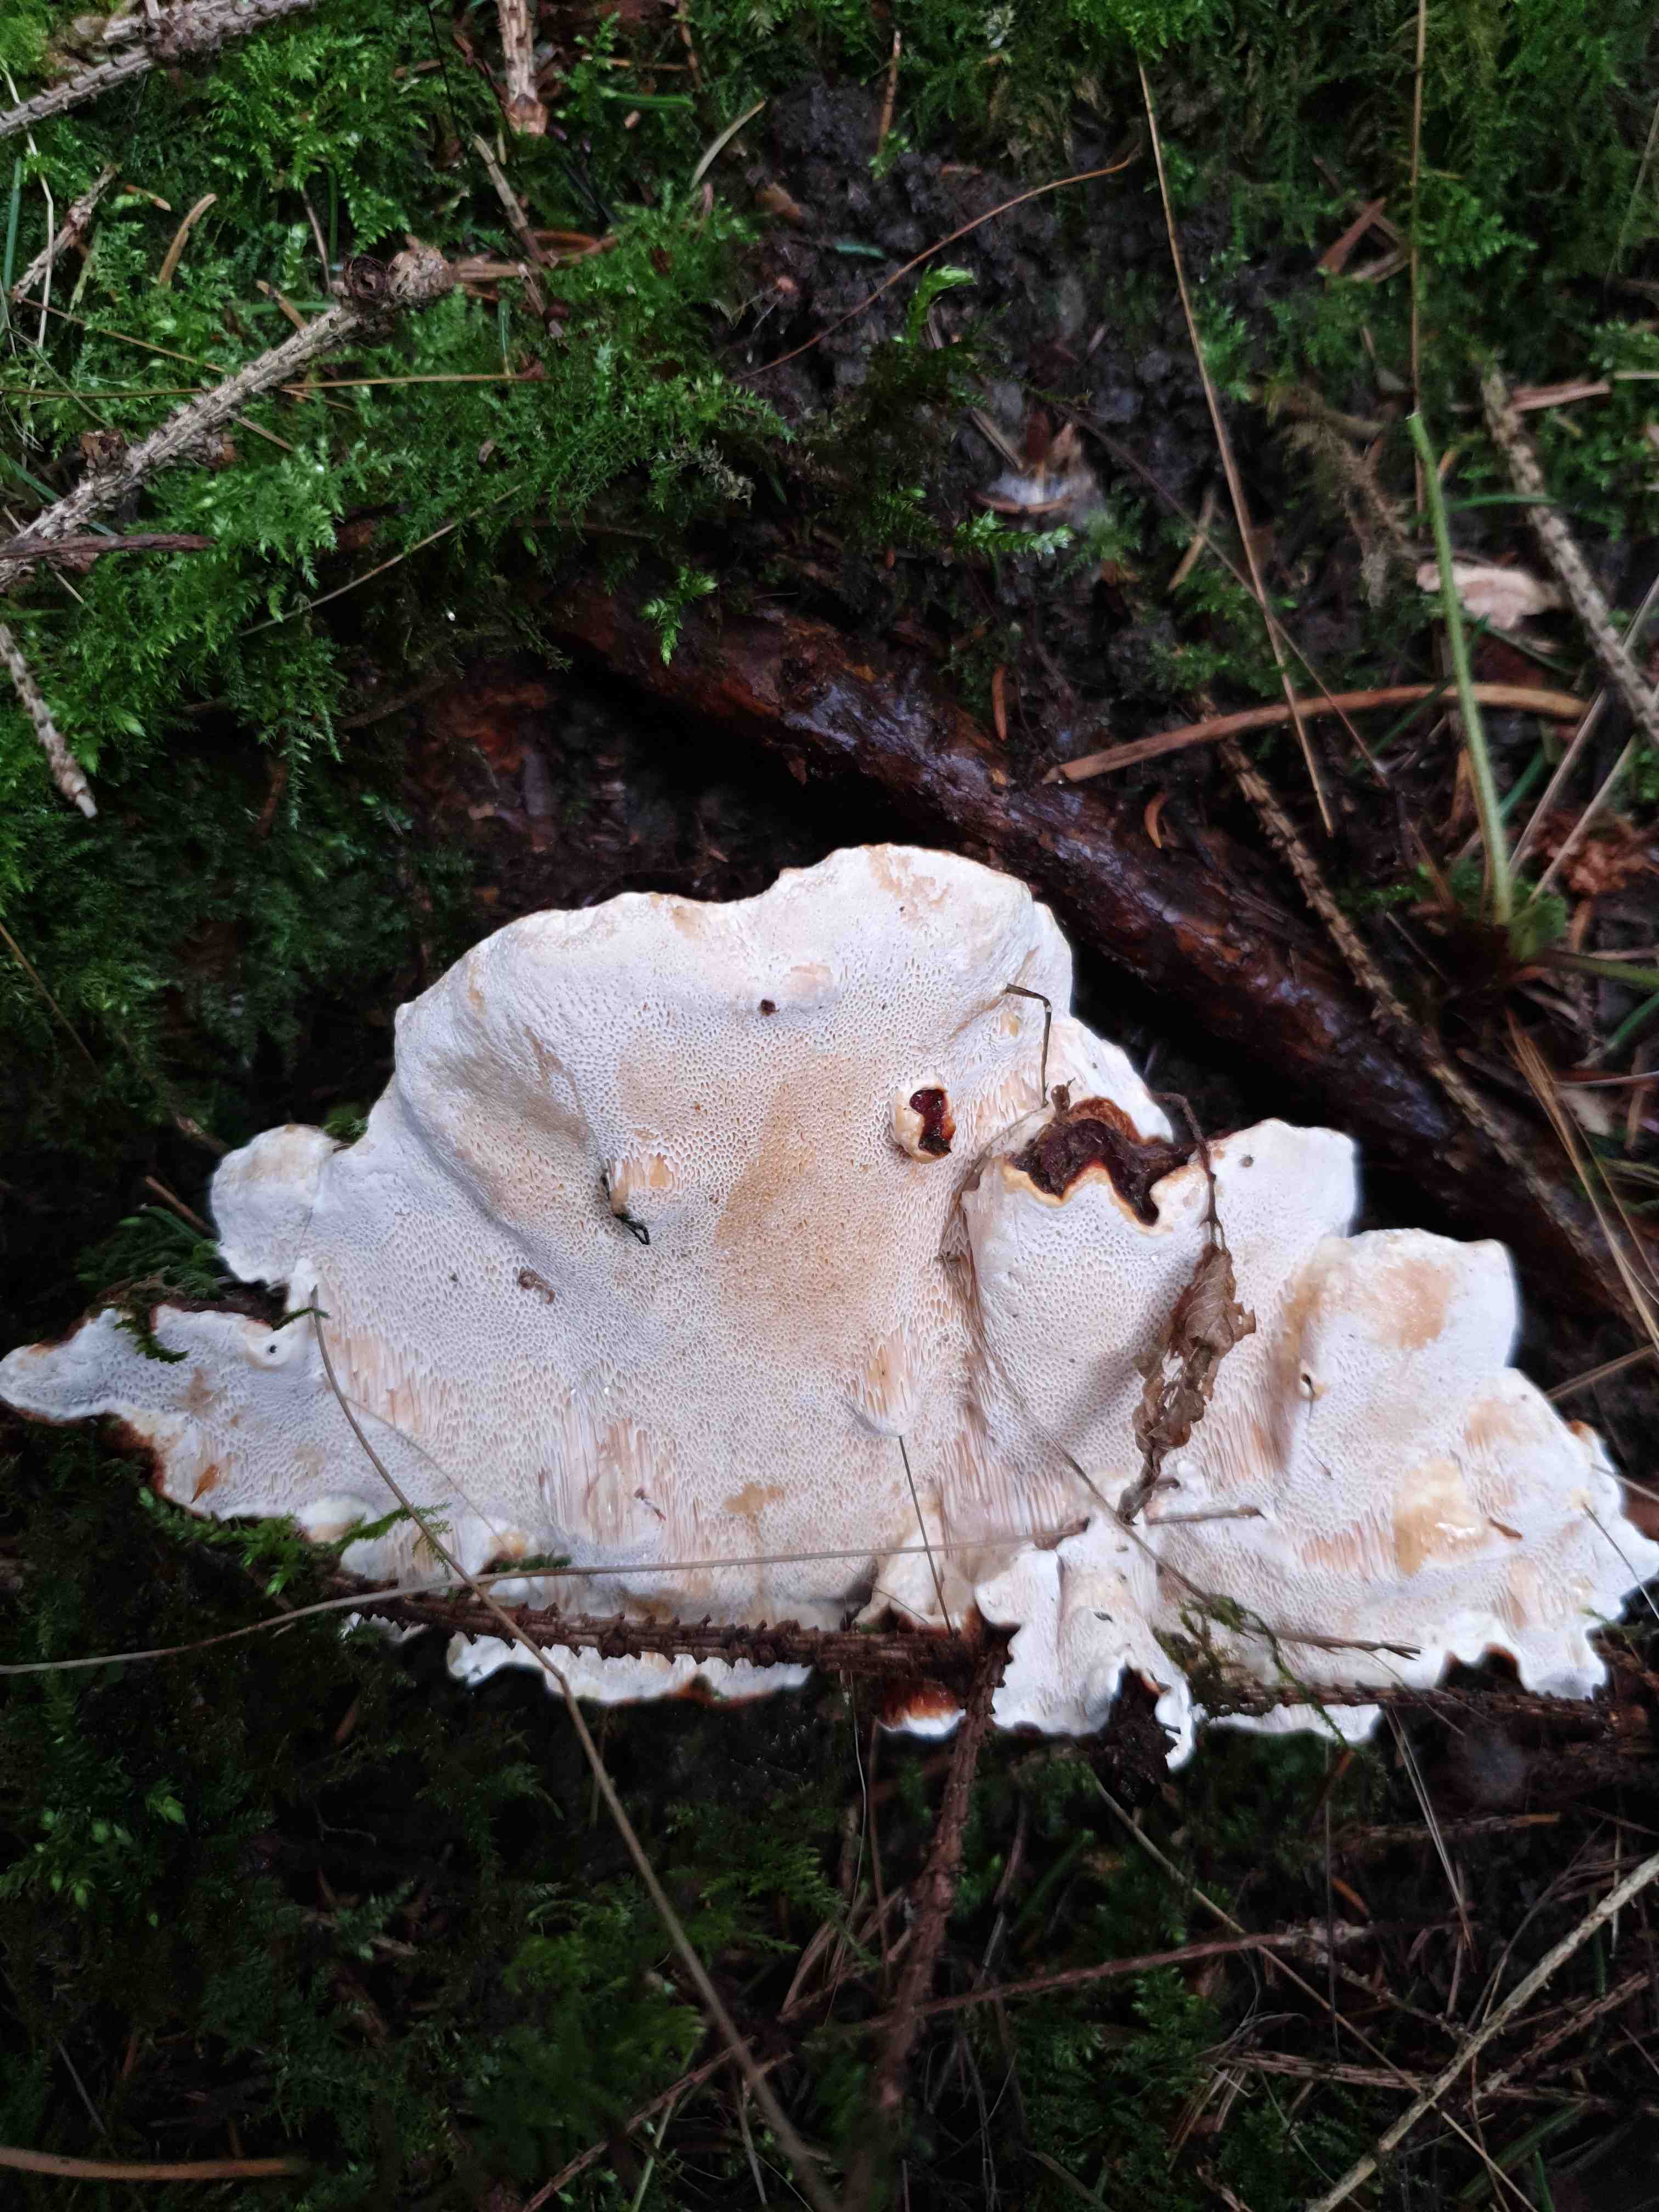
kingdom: Fungi
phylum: Basidiomycota
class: Agaricomycetes
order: Russulales
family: Bondarzewiaceae
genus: Heterobasidion
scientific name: Heterobasidion annosum
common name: almindelig rodfordærver
